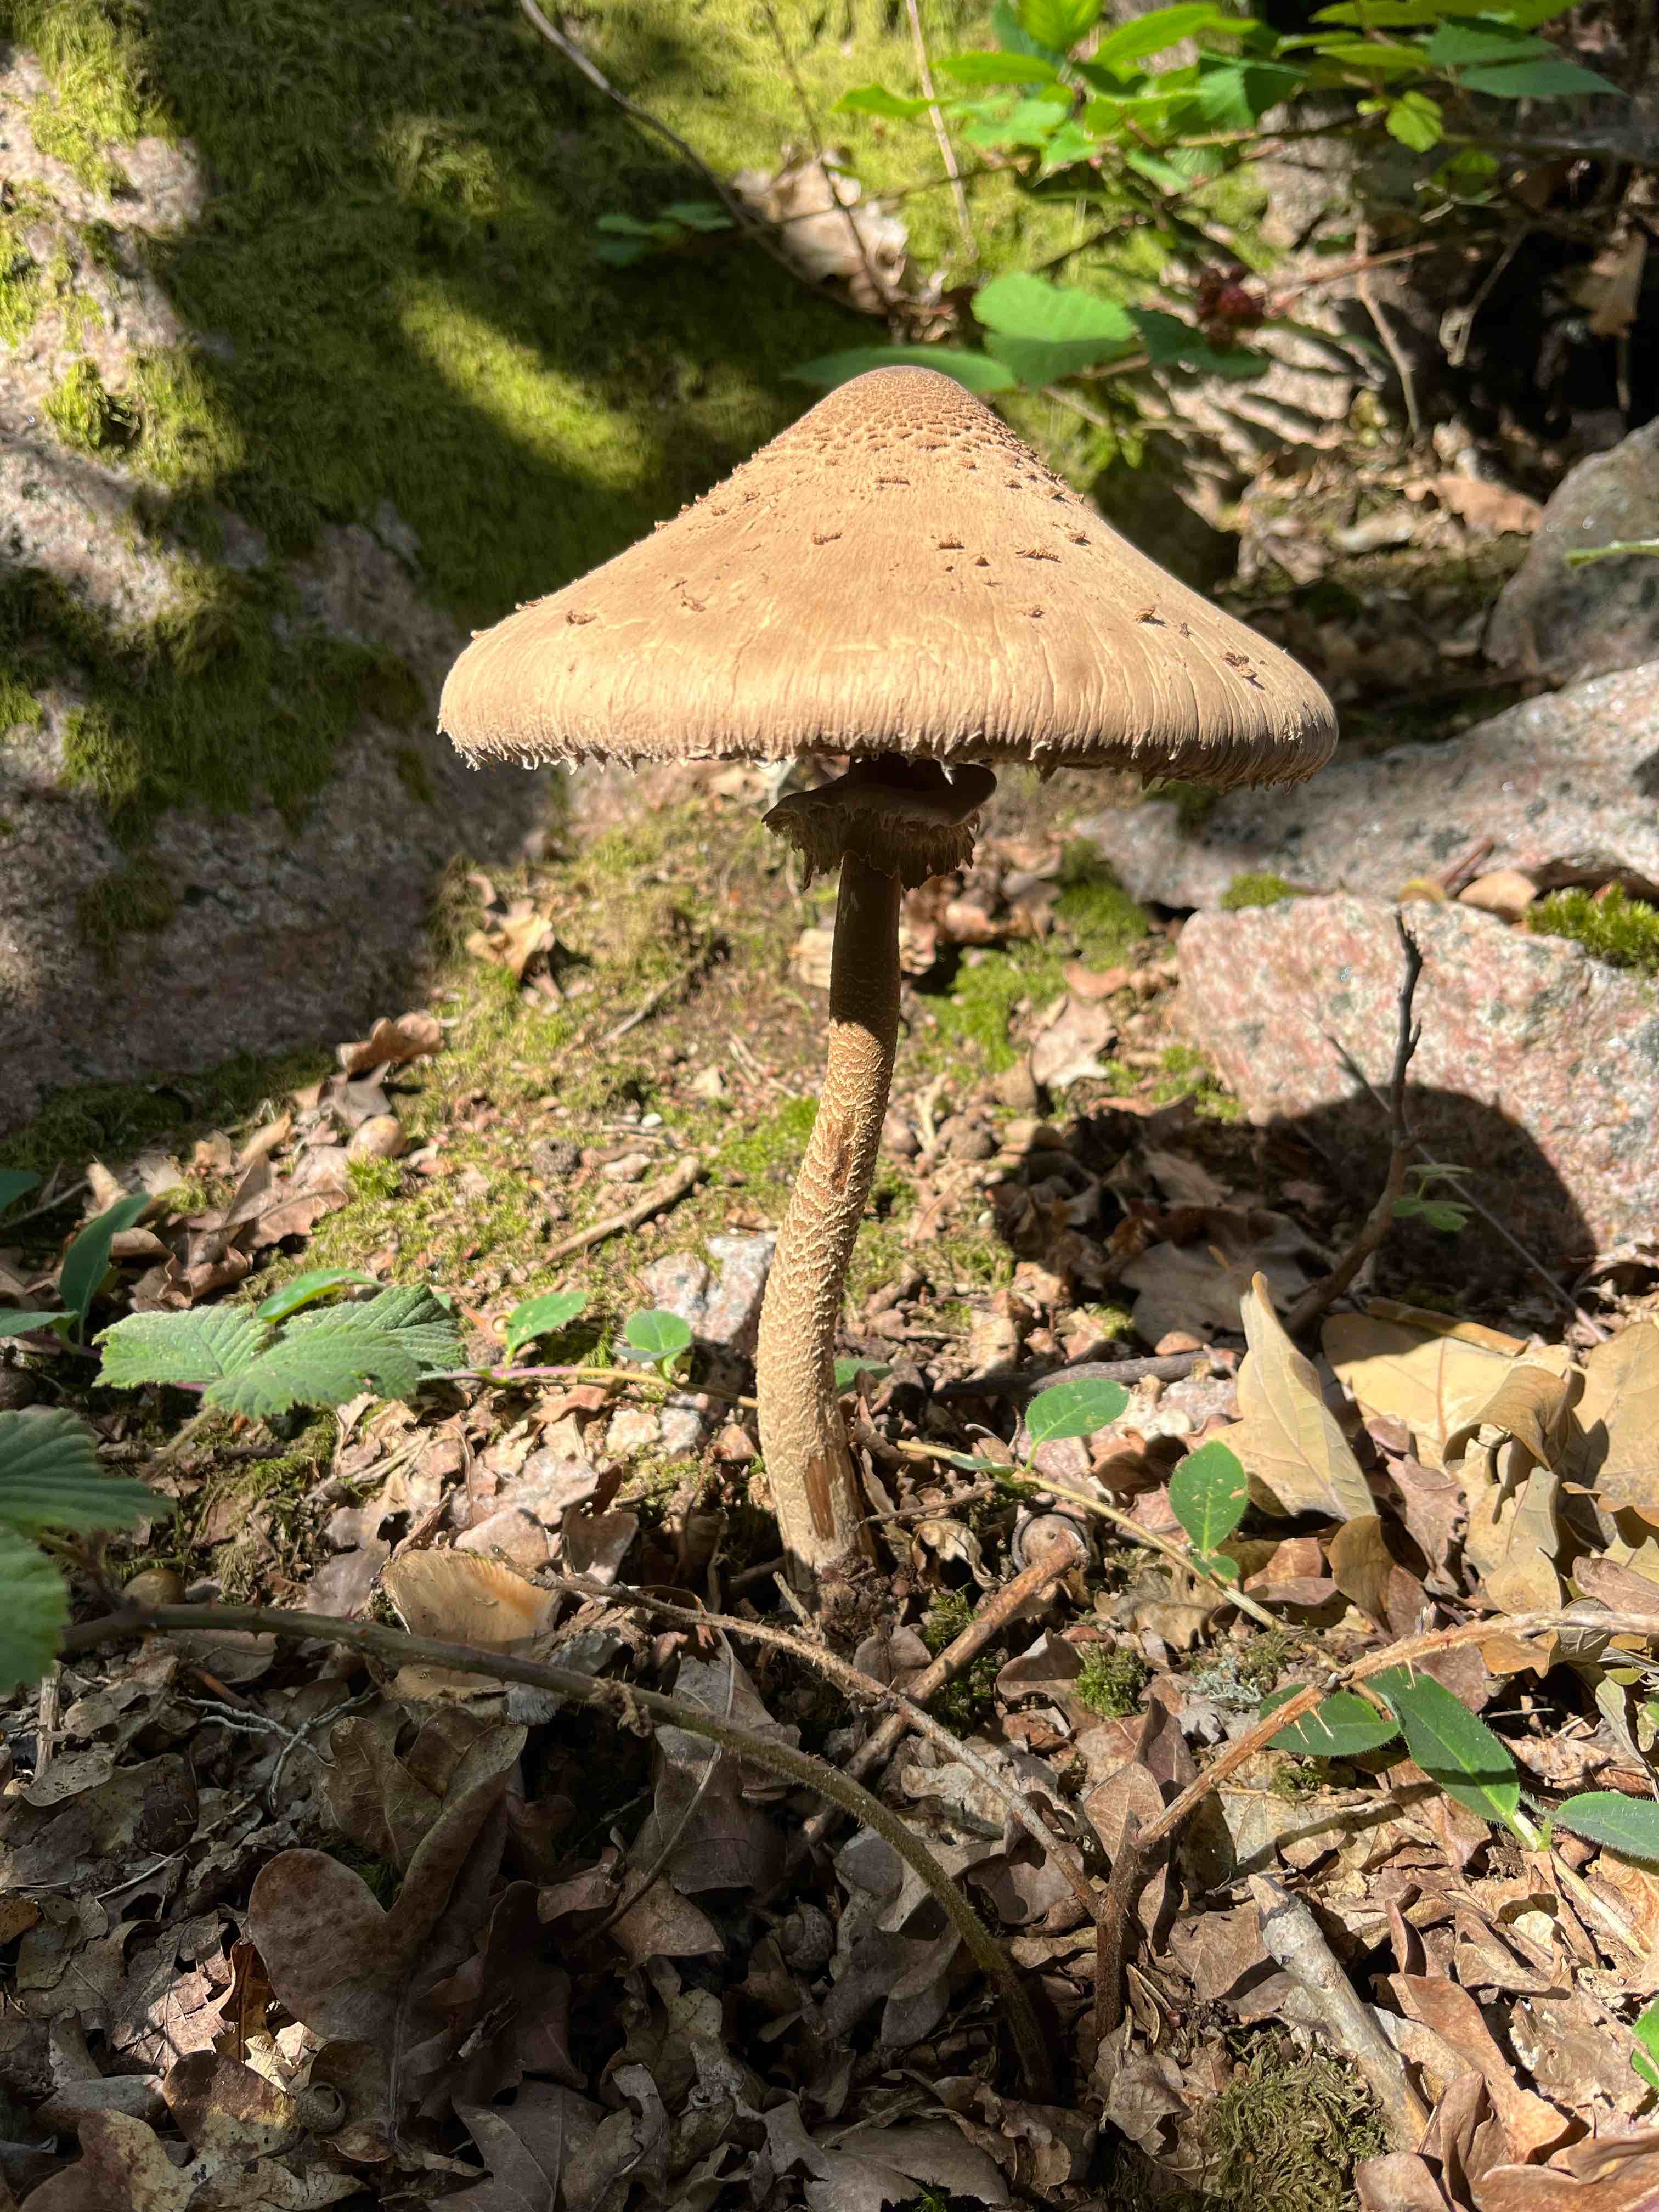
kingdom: Fungi
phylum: Basidiomycota
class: Agaricomycetes
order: Agaricales
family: Agaricaceae
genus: Macrolepiota
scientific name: Macrolepiota
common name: kæmpeparasolhat
